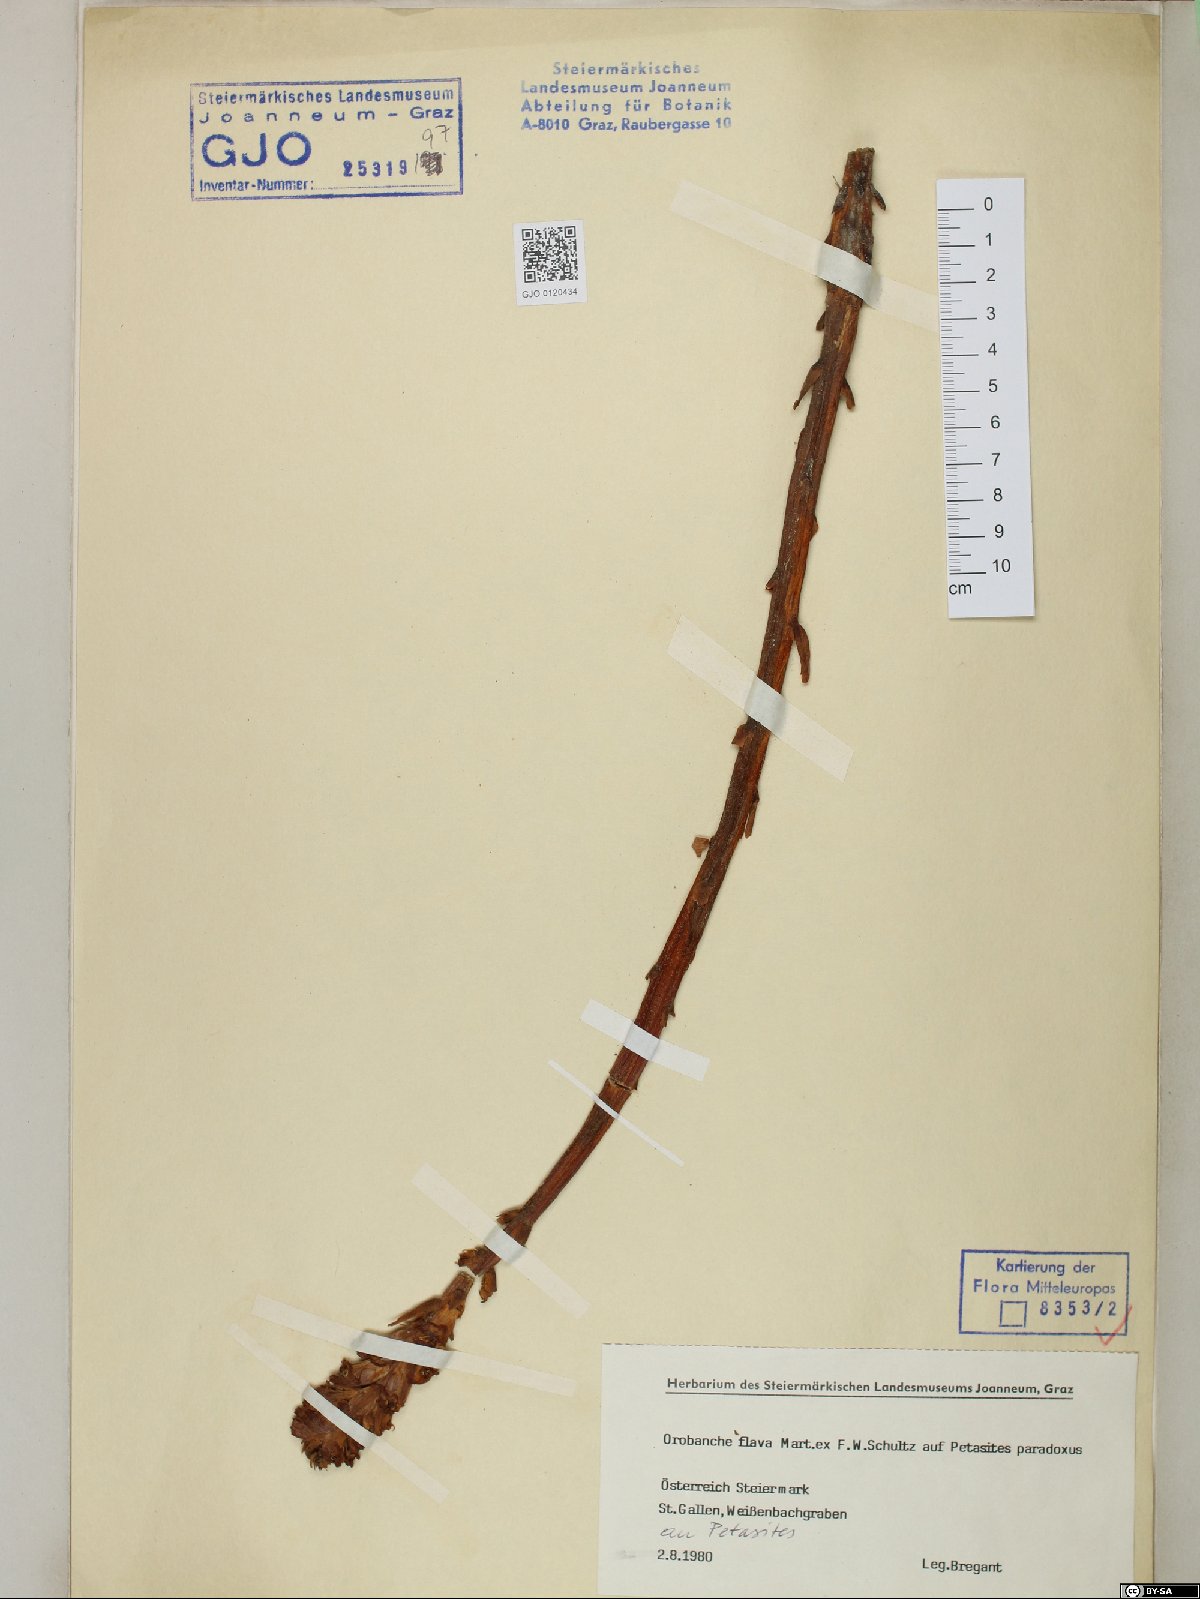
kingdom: Plantae
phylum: Tracheophyta
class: Magnoliopsida
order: Lamiales
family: Orobanchaceae
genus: Orobanche
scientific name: Orobanche flava
